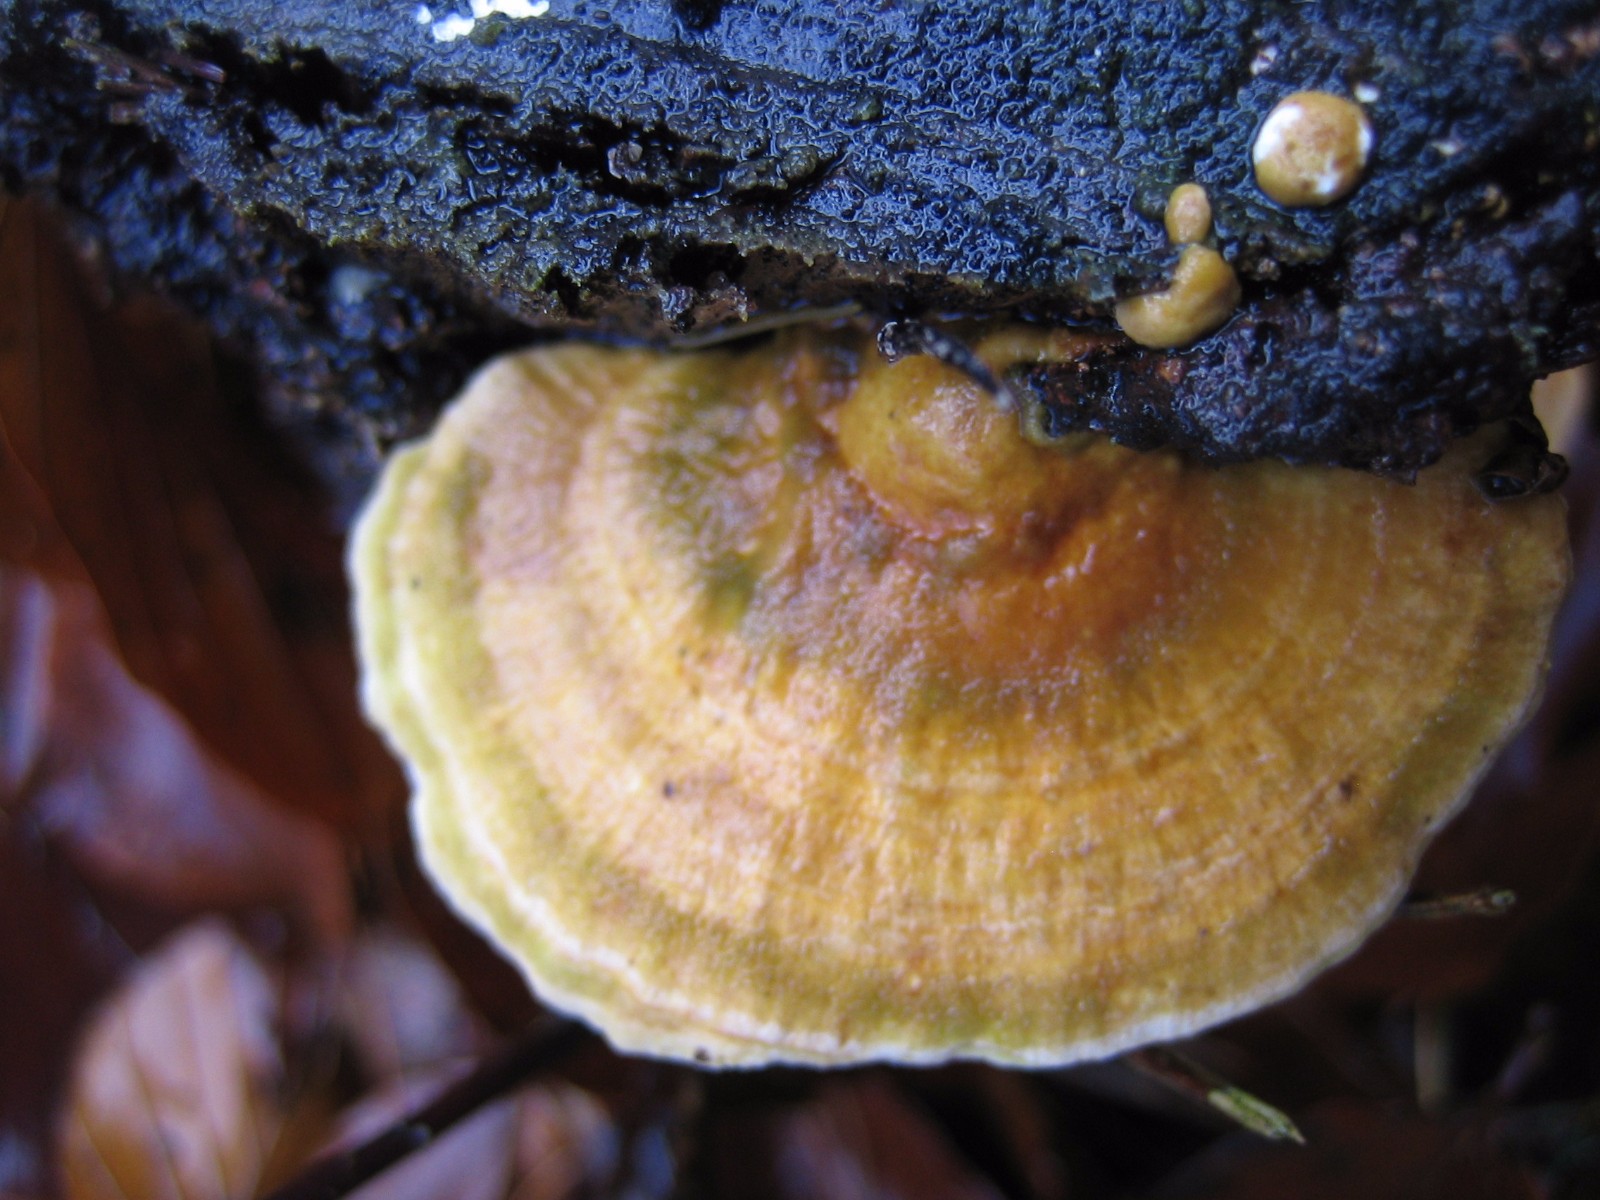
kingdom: Fungi
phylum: Basidiomycota
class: Agaricomycetes
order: Polyporales
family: Polyporaceae
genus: Trametes
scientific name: Trametes ochracea
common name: bæltet læderporesvamp
